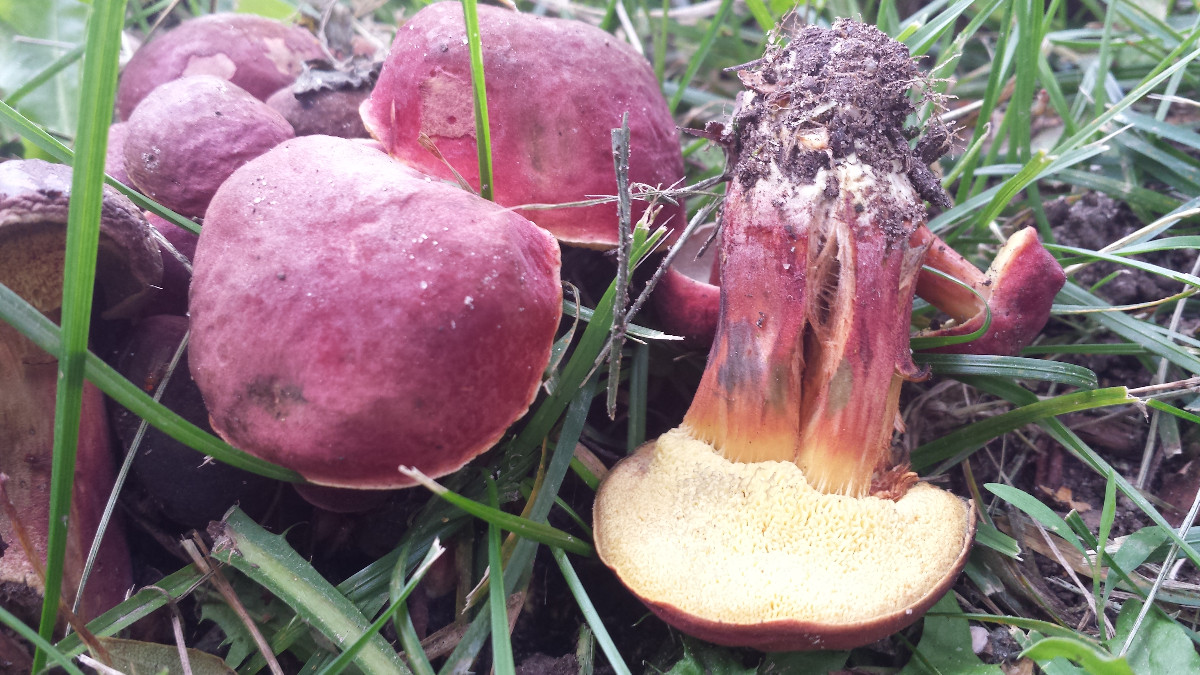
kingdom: Fungi
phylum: Basidiomycota
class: Agaricomycetes
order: Boletales
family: Boletaceae
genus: Hortiboletus
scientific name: Hortiboletus rubellus
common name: blodrød rørhat
